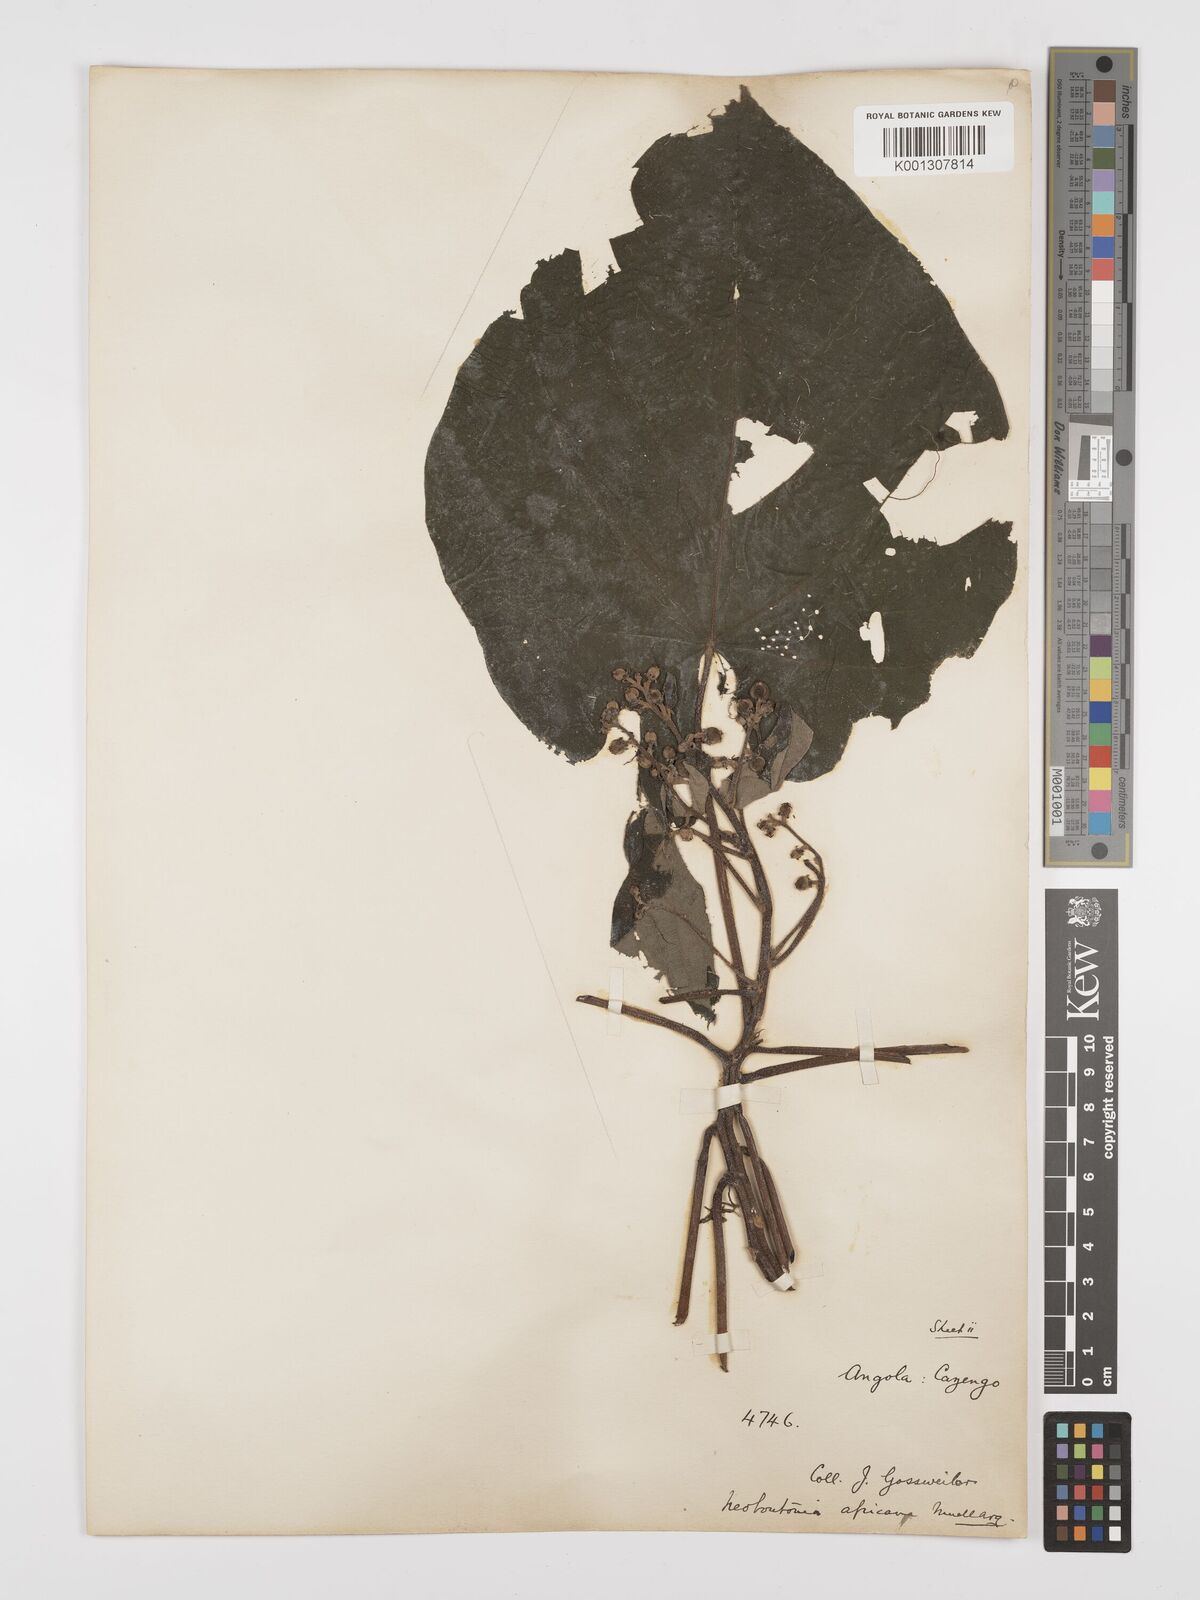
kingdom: Plantae
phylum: Tracheophyta
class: Magnoliopsida
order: Malpighiales
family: Euphorbiaceae
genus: Neoboutonia
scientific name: Neoboutonia
